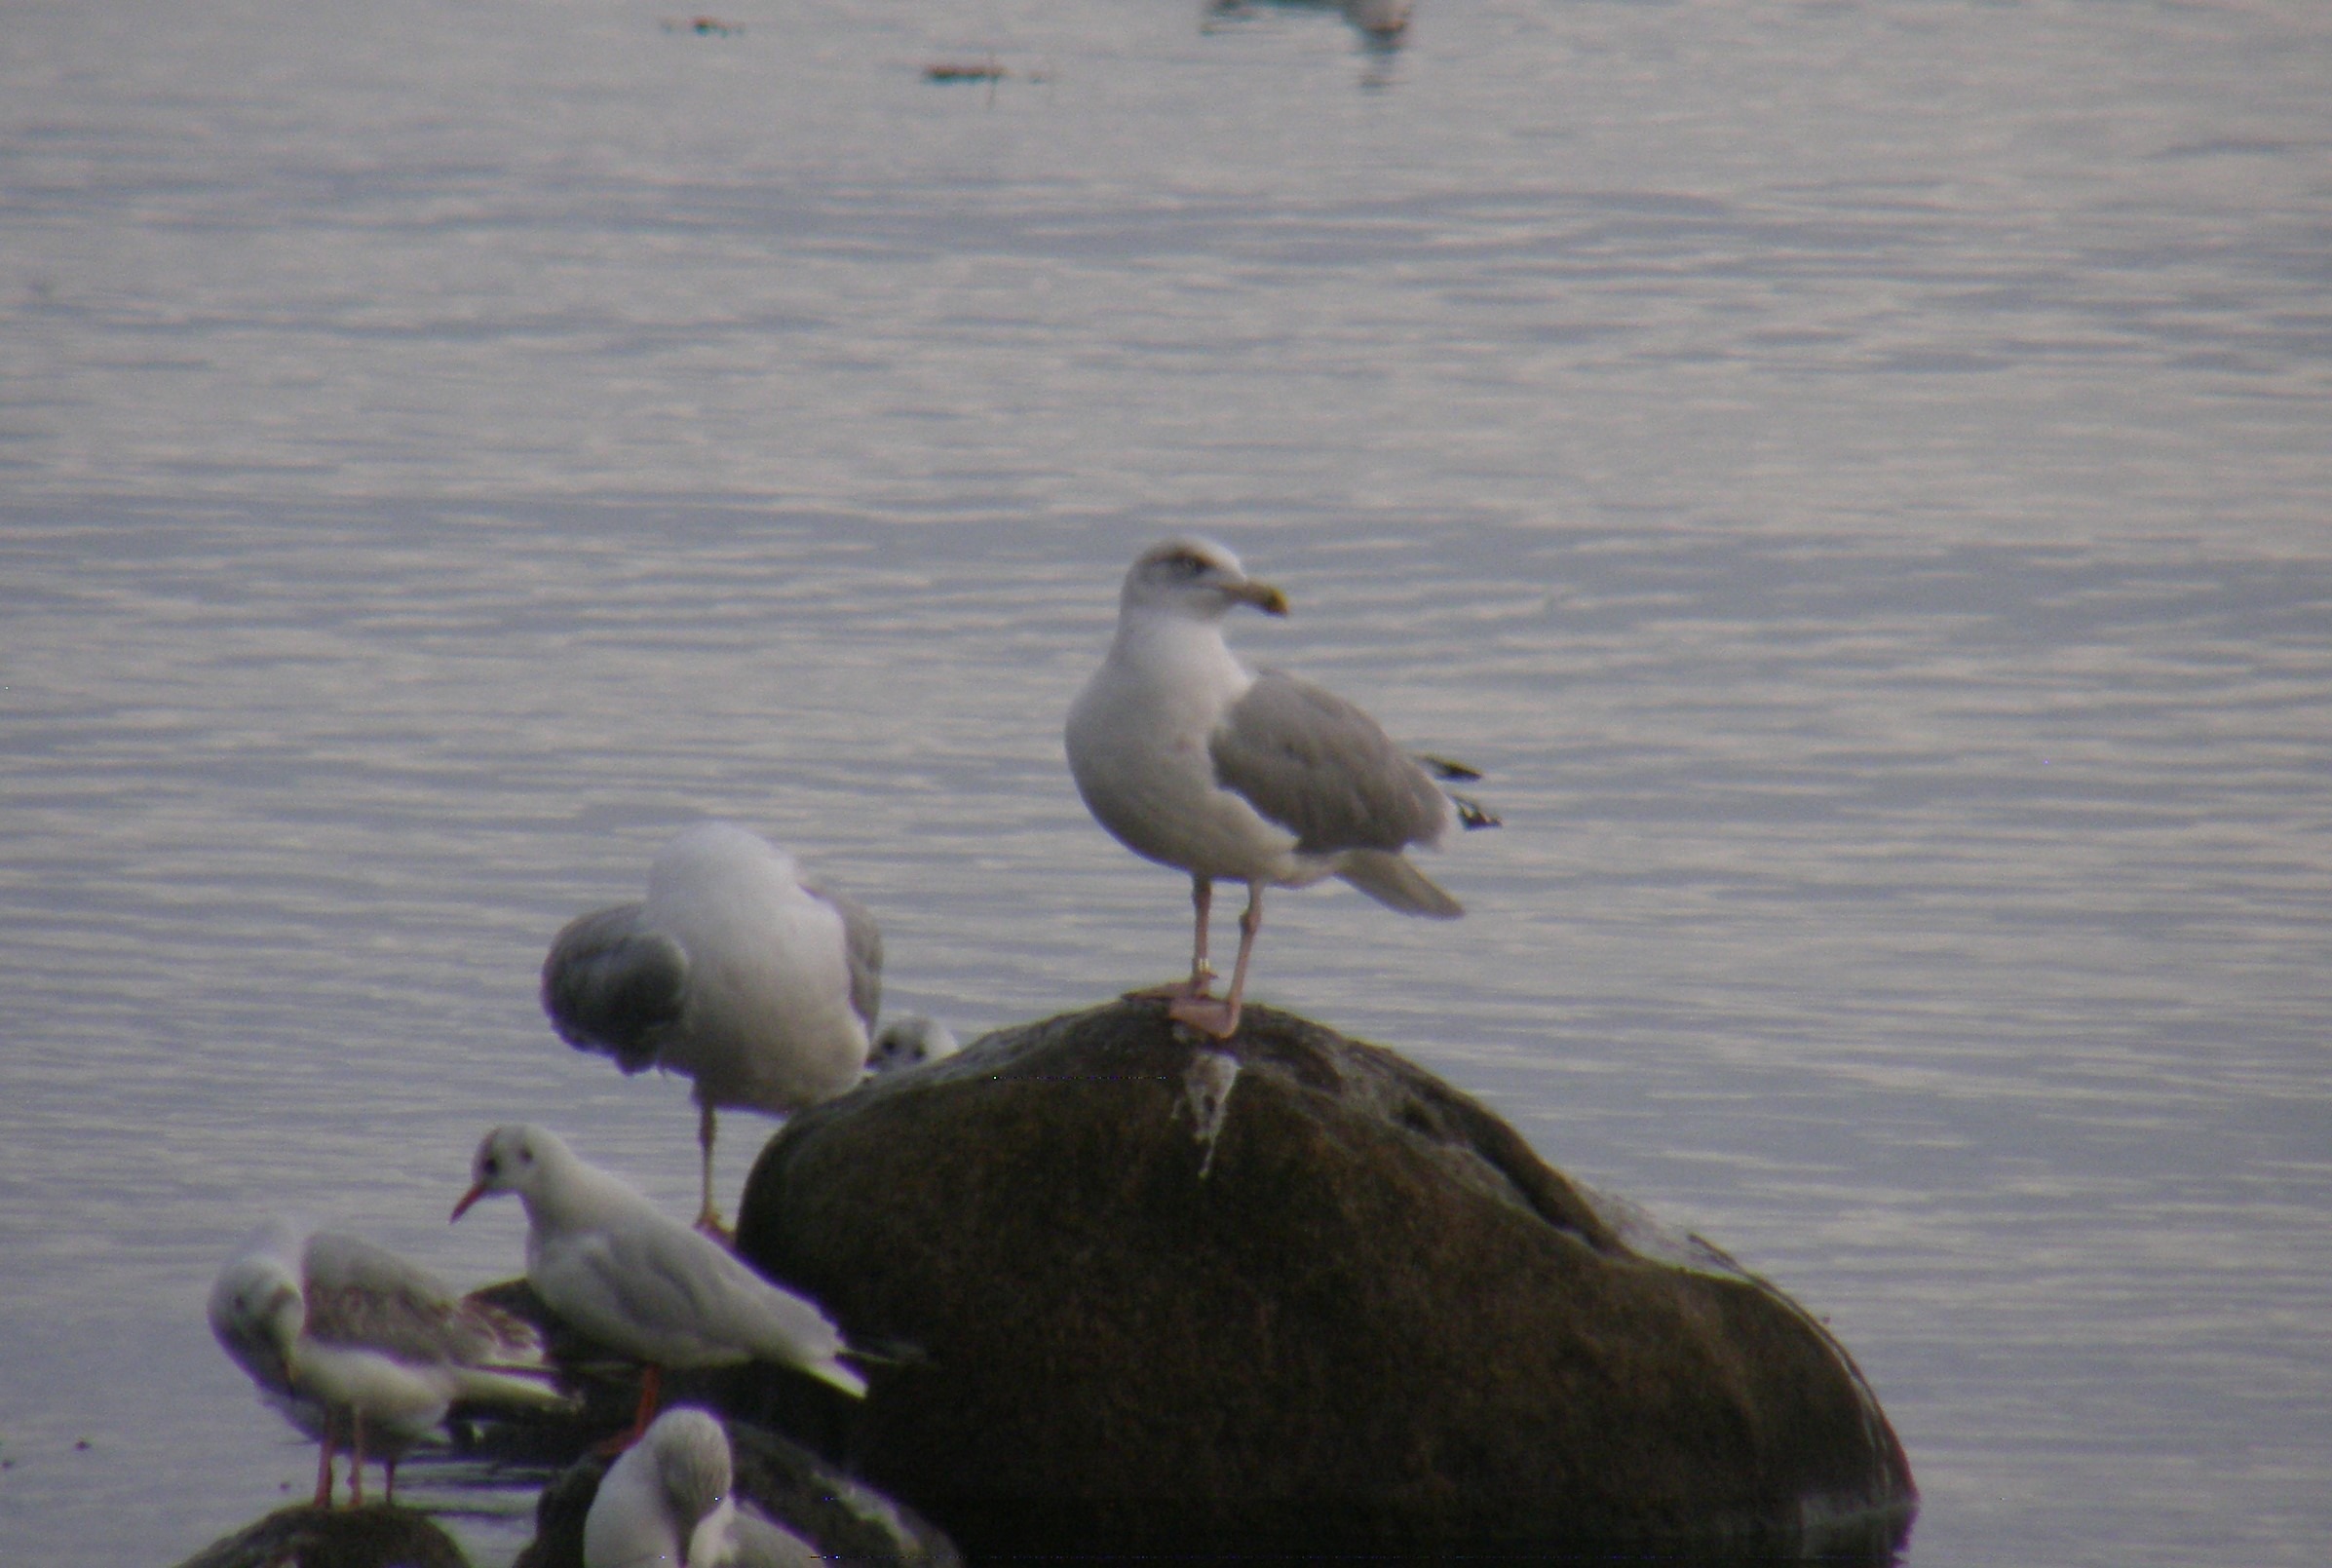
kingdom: Animalia
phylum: Chordata
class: Aves
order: Charadriiformes
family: Laridae
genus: Larus
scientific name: Larus argentatus
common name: Sølvmåge
